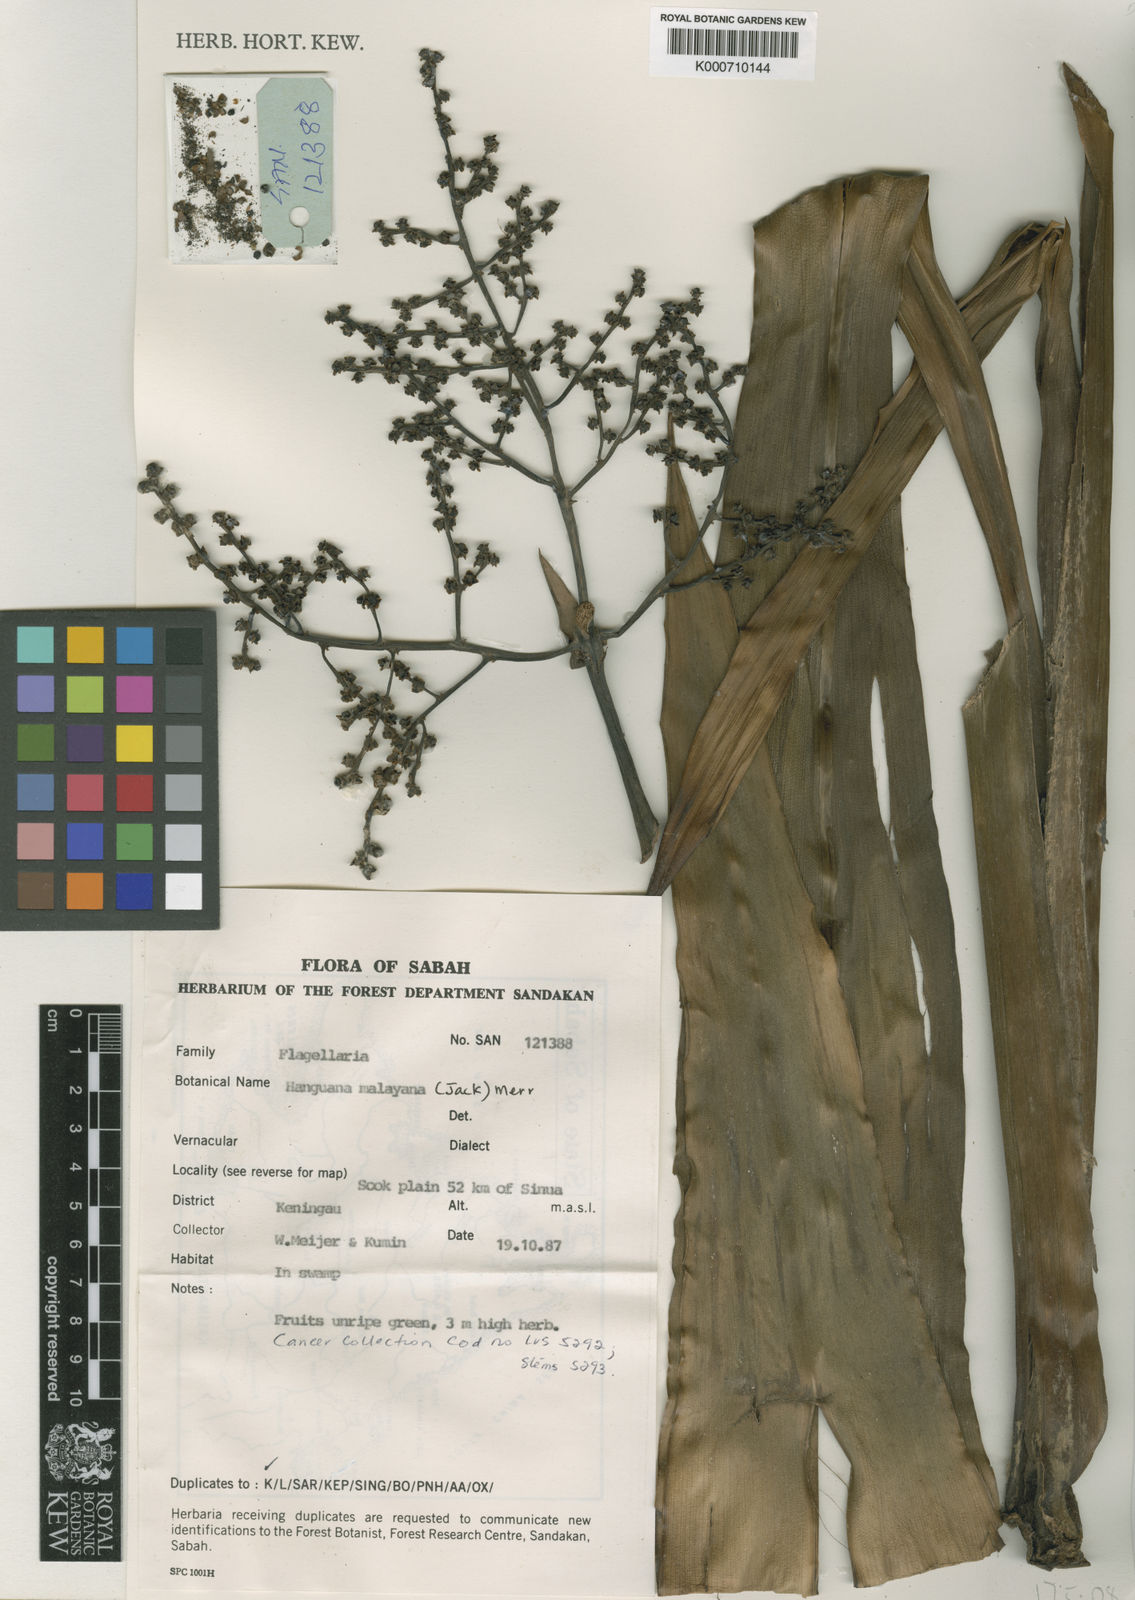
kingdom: Plantae
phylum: Tracheophyta
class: Liliopsida
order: Commelinales
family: Hanguanaceae
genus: Hanguana
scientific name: Hanguana malayana
